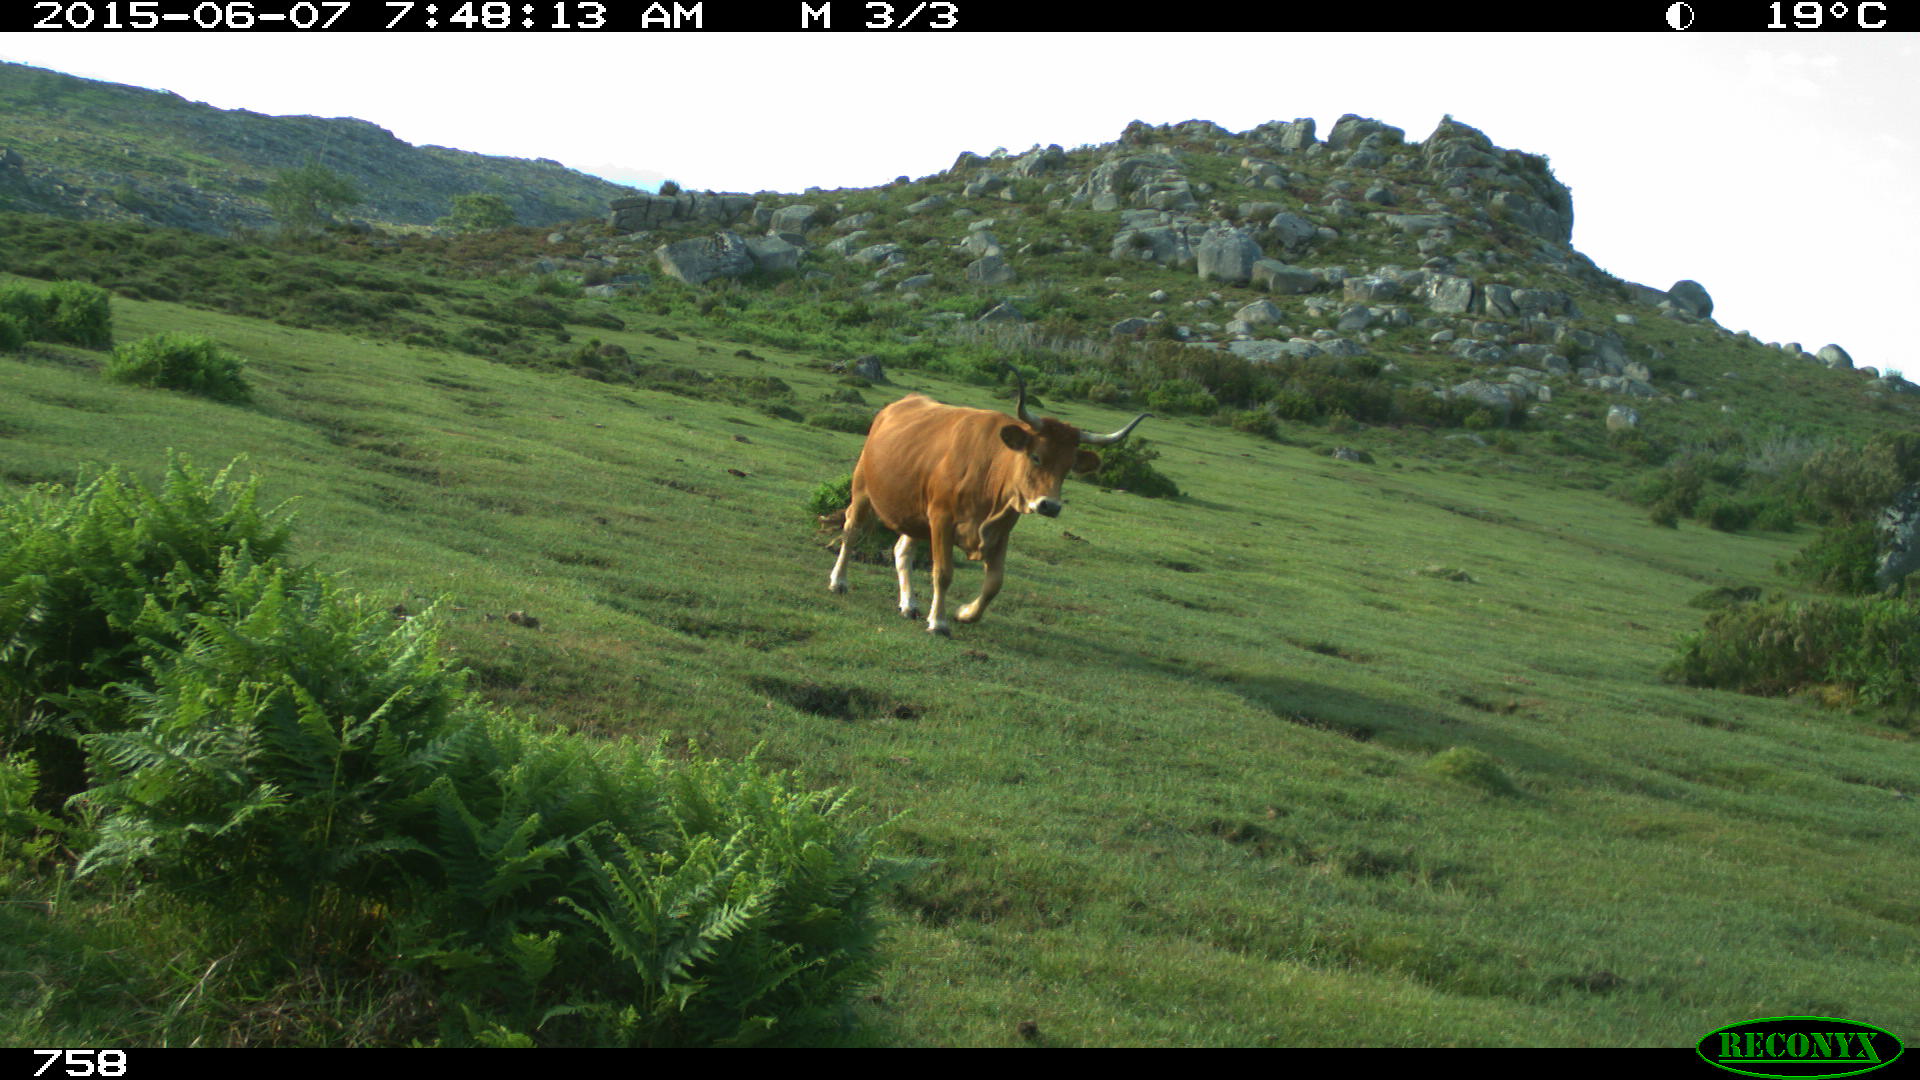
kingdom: Animalia
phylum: Chordata
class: Mammalia
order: Artiodactyla
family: Bovidae
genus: Bos
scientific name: Bos taurus
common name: Domesticated cattle
